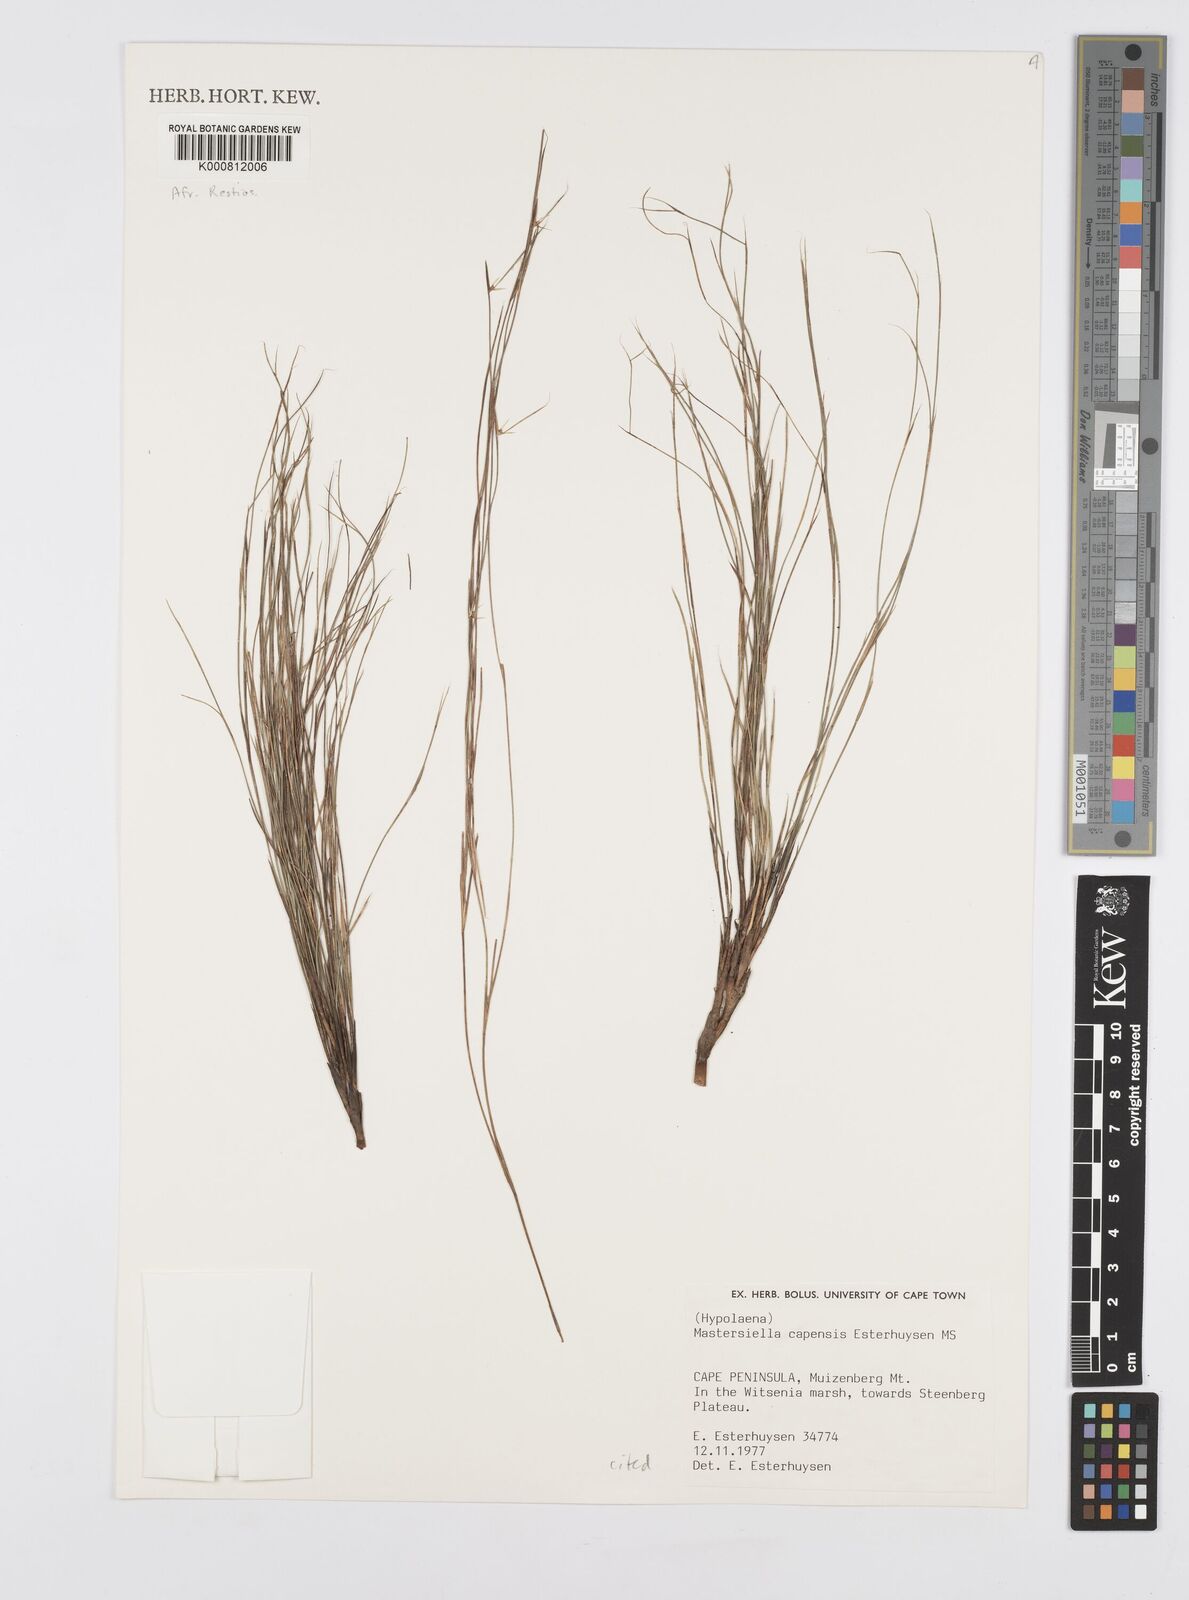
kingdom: Plantae
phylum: Tracheophyta
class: Liliopsida
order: Poales
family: Restionaceae
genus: Anthochortus
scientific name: Anthochortus capensis
